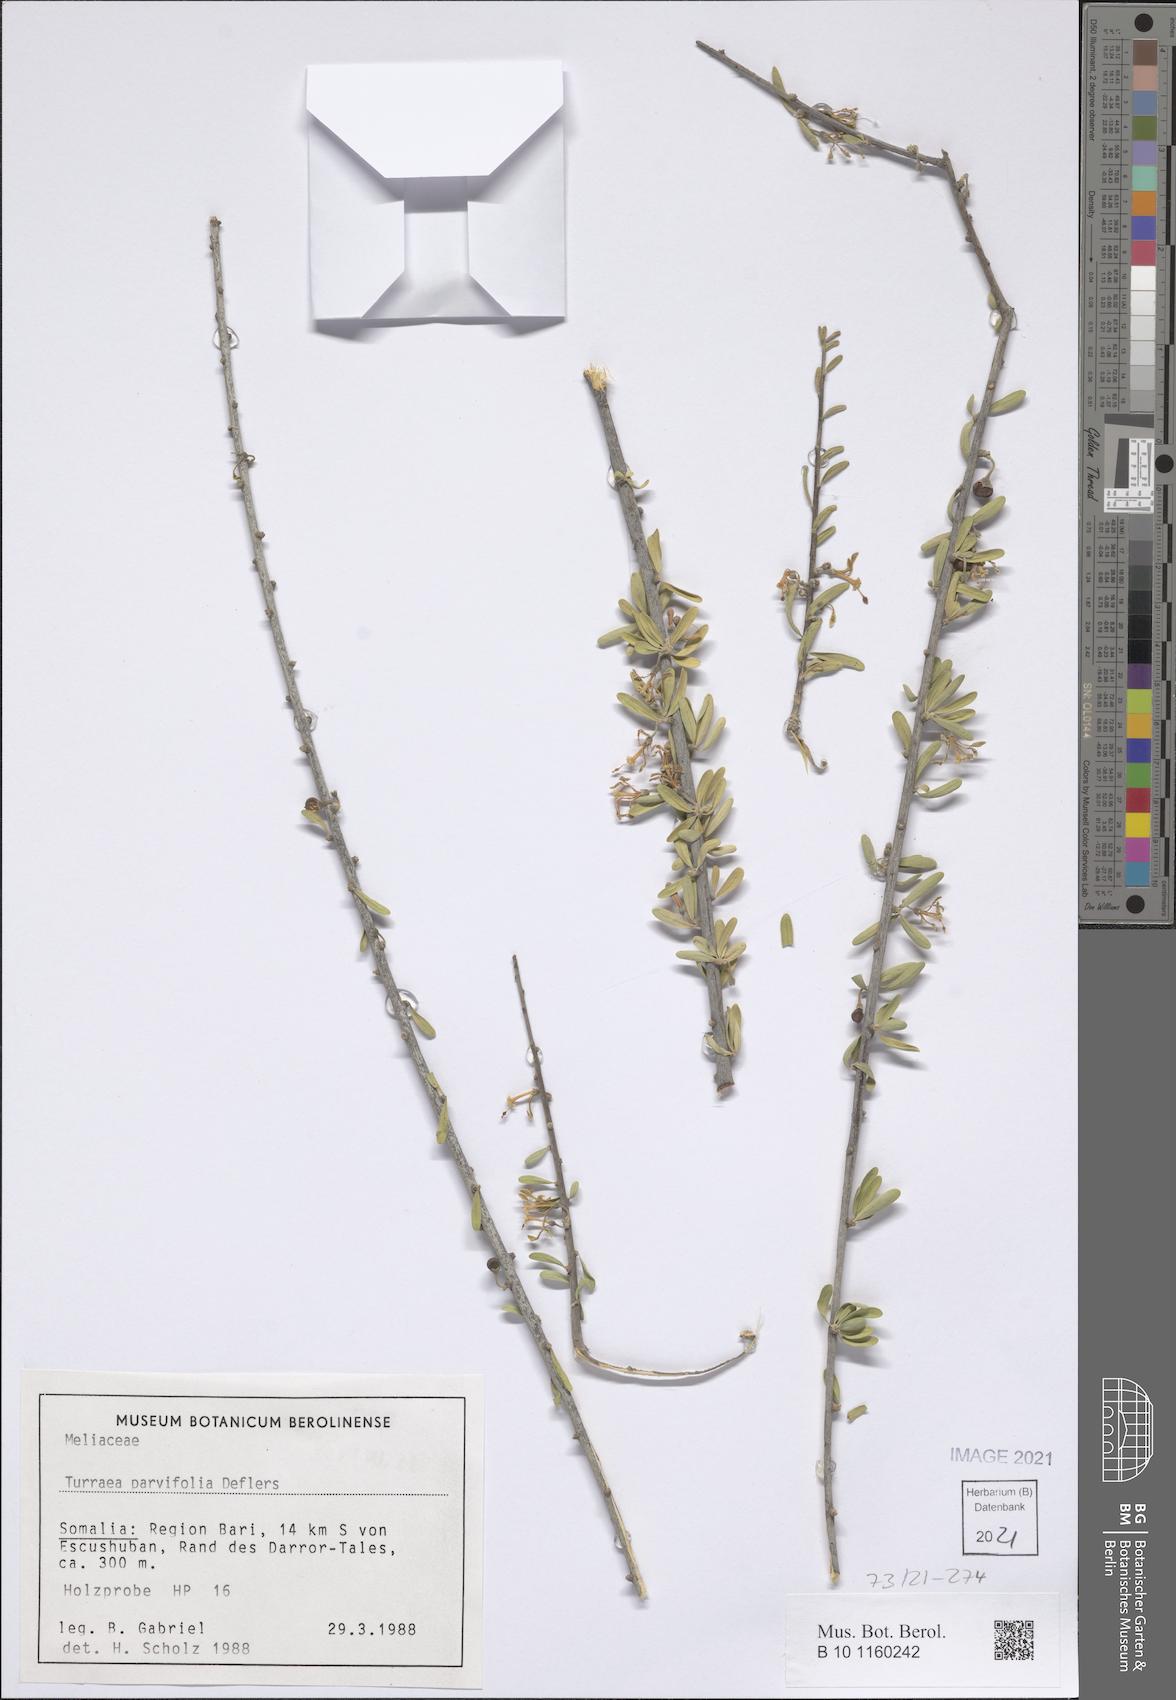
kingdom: Plantae
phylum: Tracheophyta
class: Magnoliopsida
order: Sapindales
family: Meliaceae
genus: Turraea
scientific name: Turraea parvifolia
